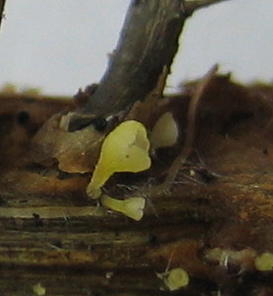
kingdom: Fungi
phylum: Basidiomycota
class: Agaricomycetes
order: Agaricales
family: Marasmiaceae
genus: Calyptella
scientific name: Calyptella campanula
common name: gul nældehue
